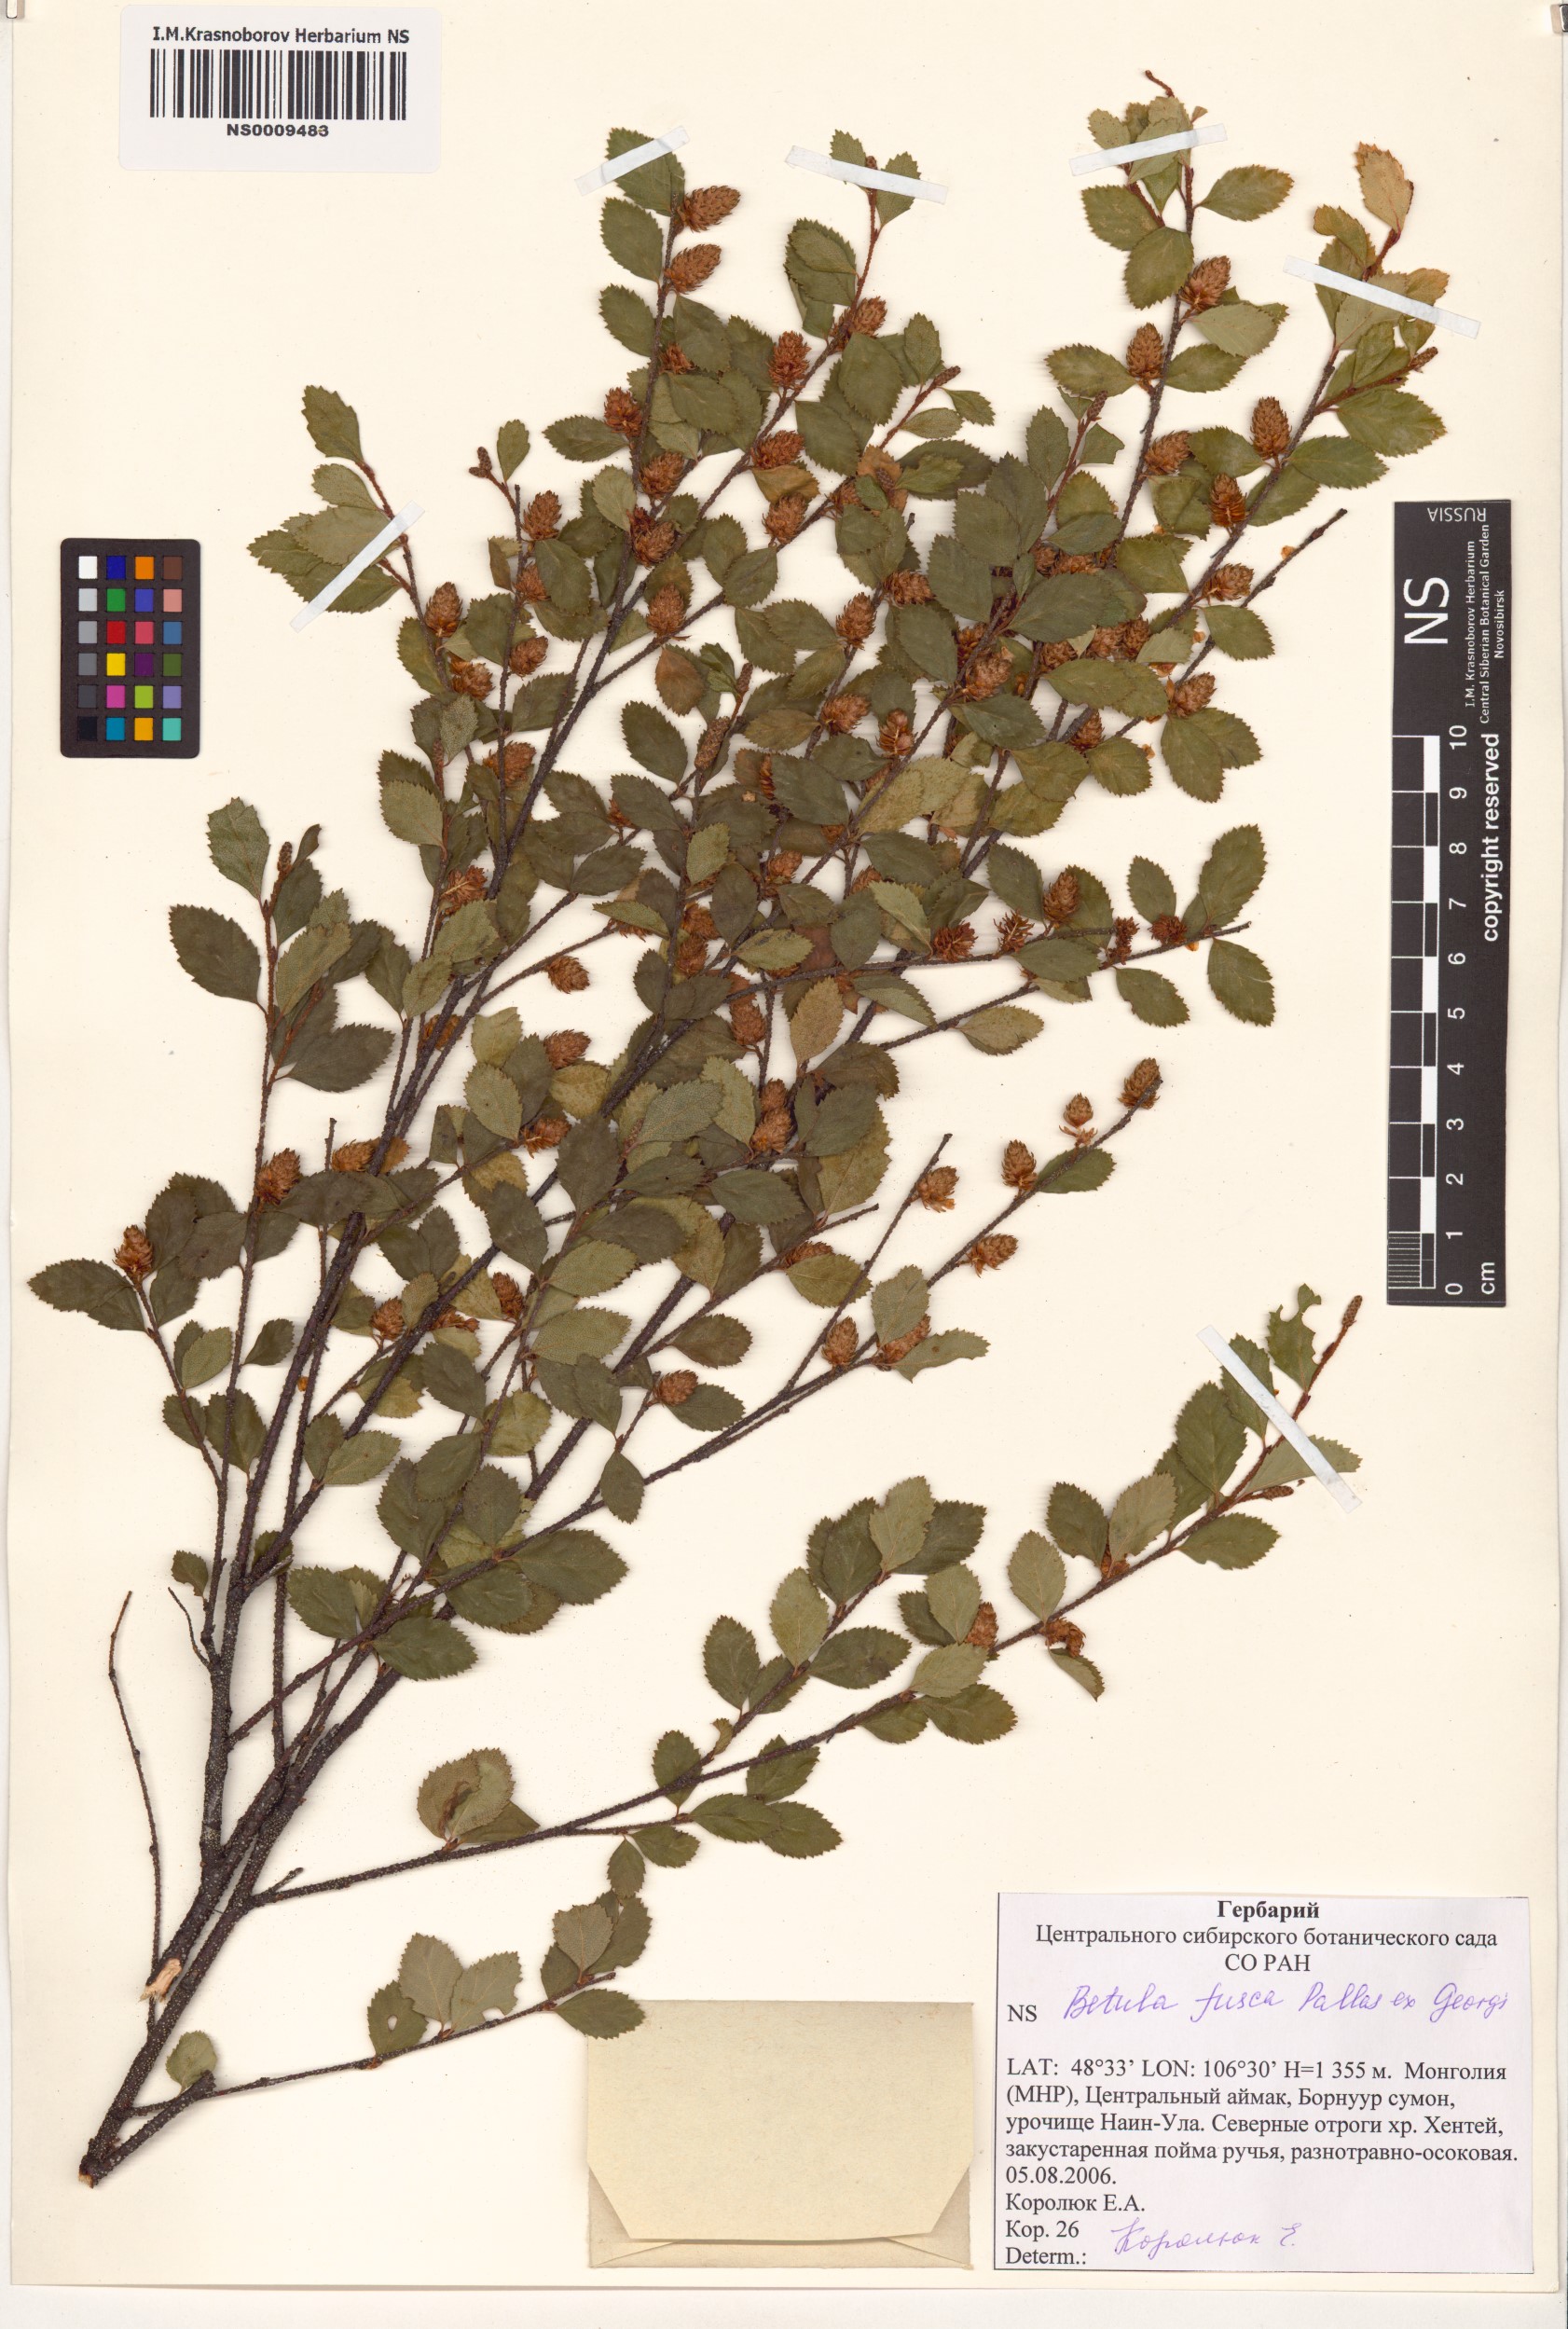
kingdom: Plantae
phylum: Tracheophyta
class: Magnoliopsida
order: Fagales
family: Betulaceae
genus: Betula
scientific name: Betula fruticosa
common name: Japanese bog birch
